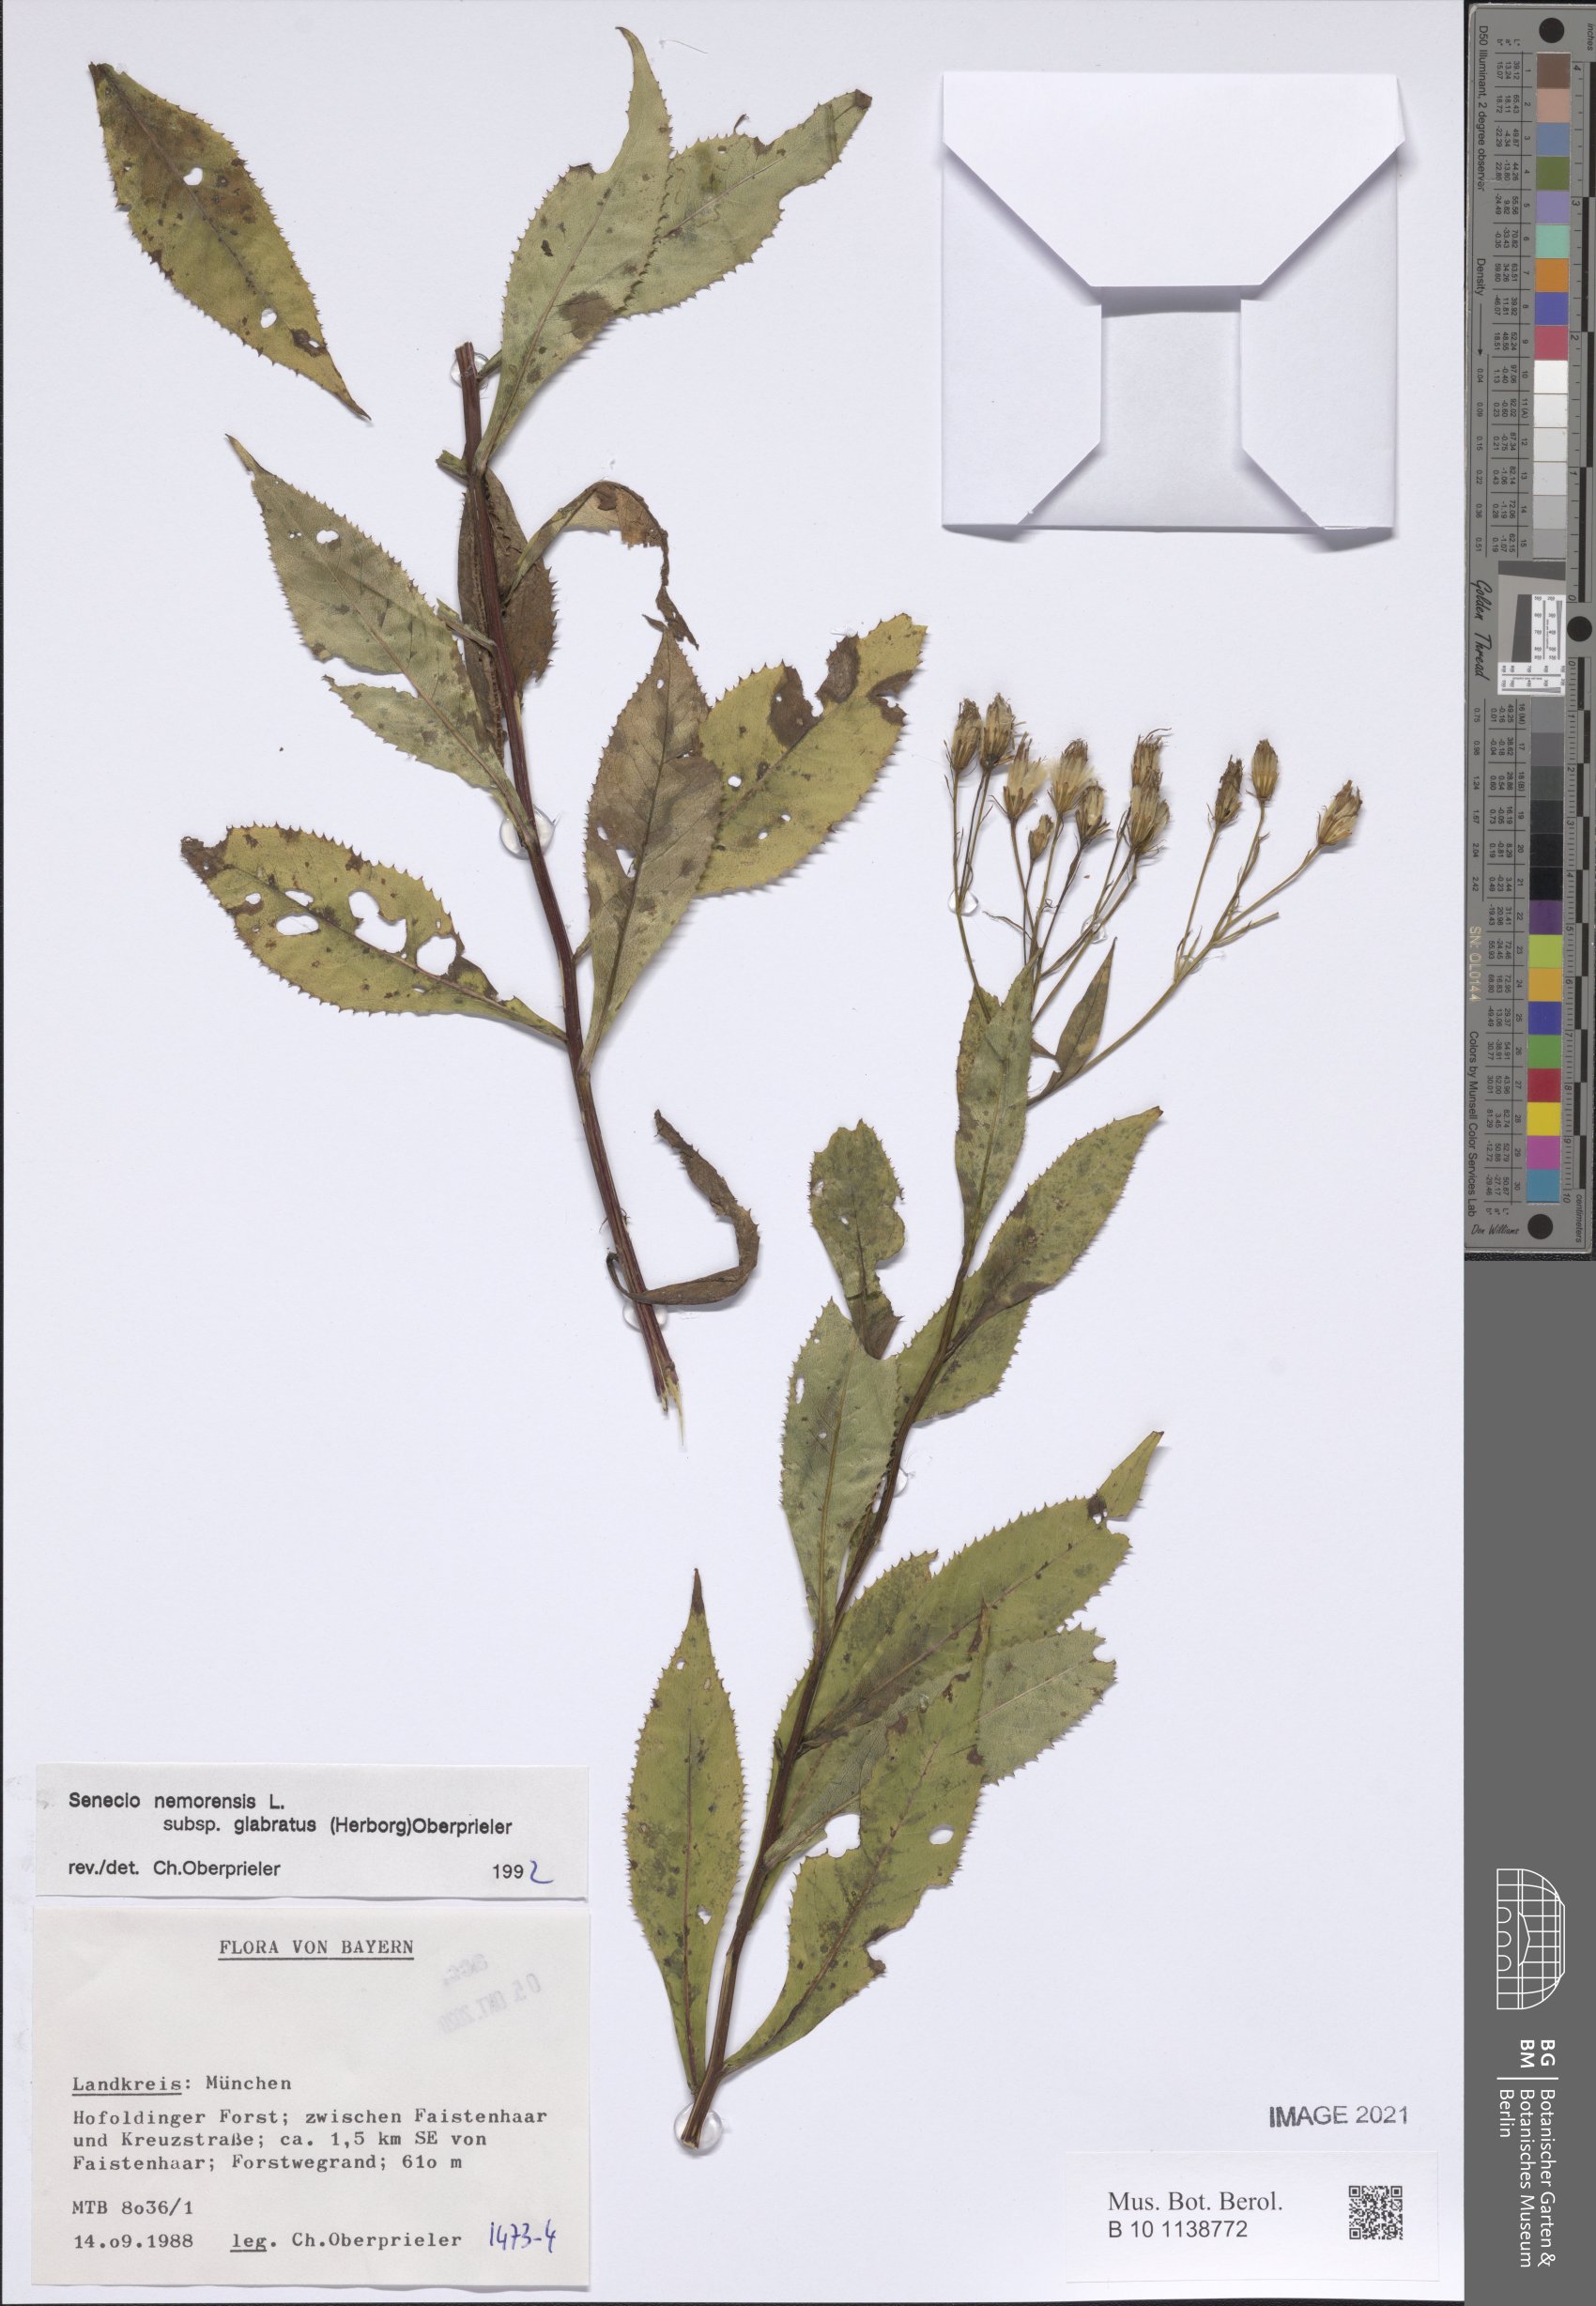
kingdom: Plantae
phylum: Tracheophyta
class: Magnoliopsida
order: Asterales
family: Asteraceae
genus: Senecio
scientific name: Senecio germanicus
